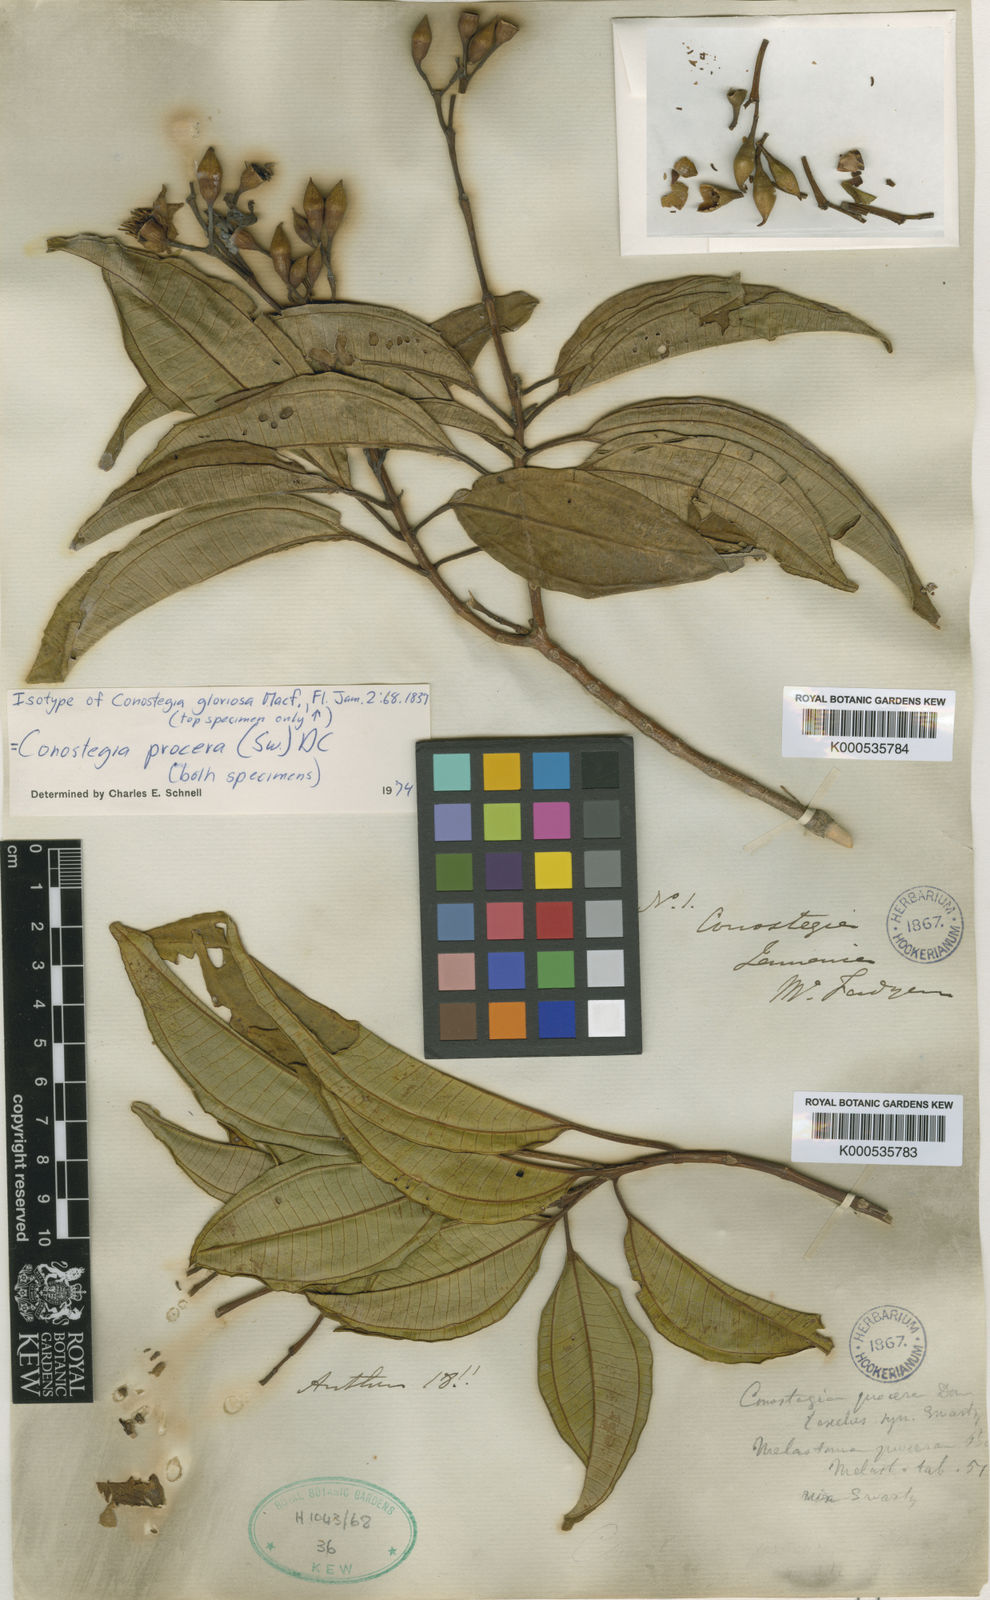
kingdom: Plantae
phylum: Tracheophyta
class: Magnoliopsida
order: Myrtales
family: Melastomataceae
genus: Miconia
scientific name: Miconia
